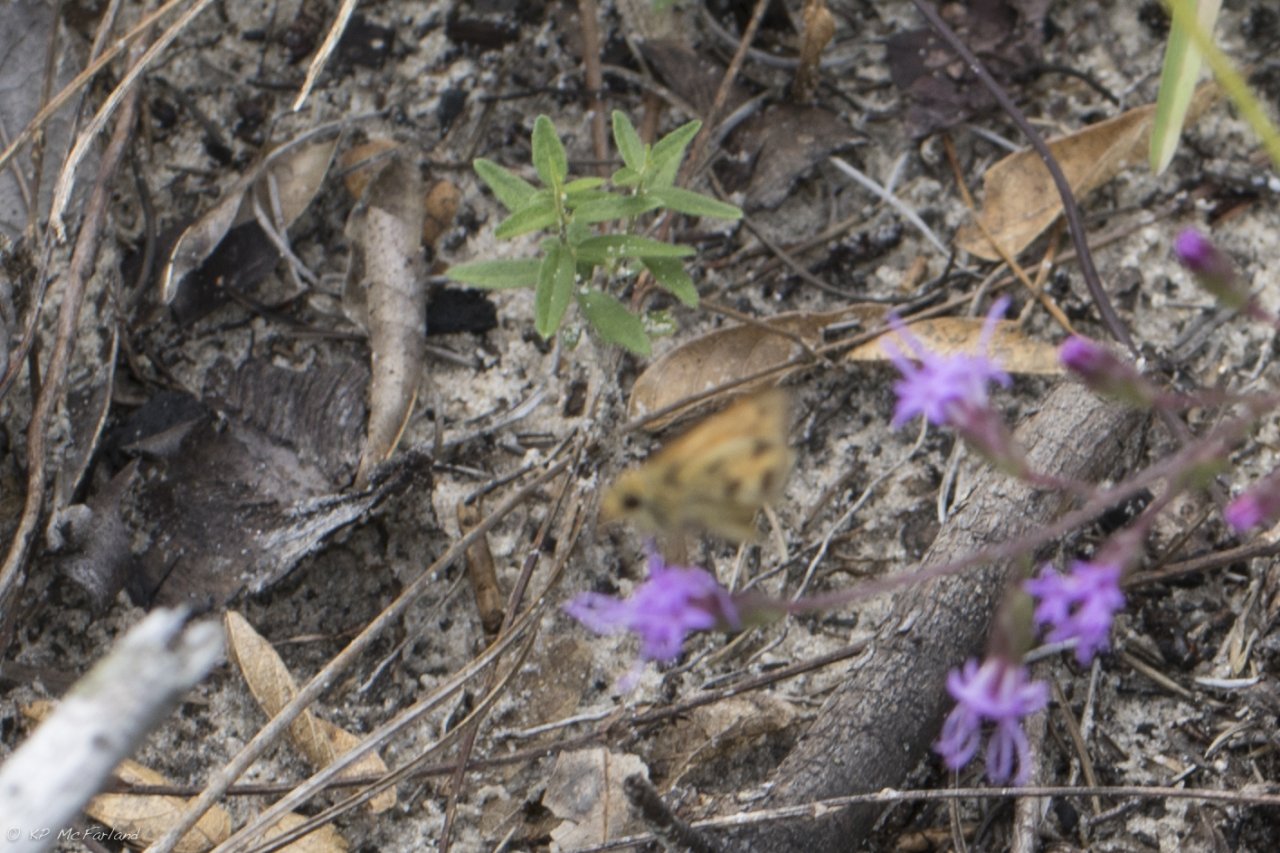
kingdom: Animalia
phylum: Arthropoda
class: Insecta
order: Lepidoptera
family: Hesperiidae
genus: Polites
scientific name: Polites vibex
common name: Whirlabout
